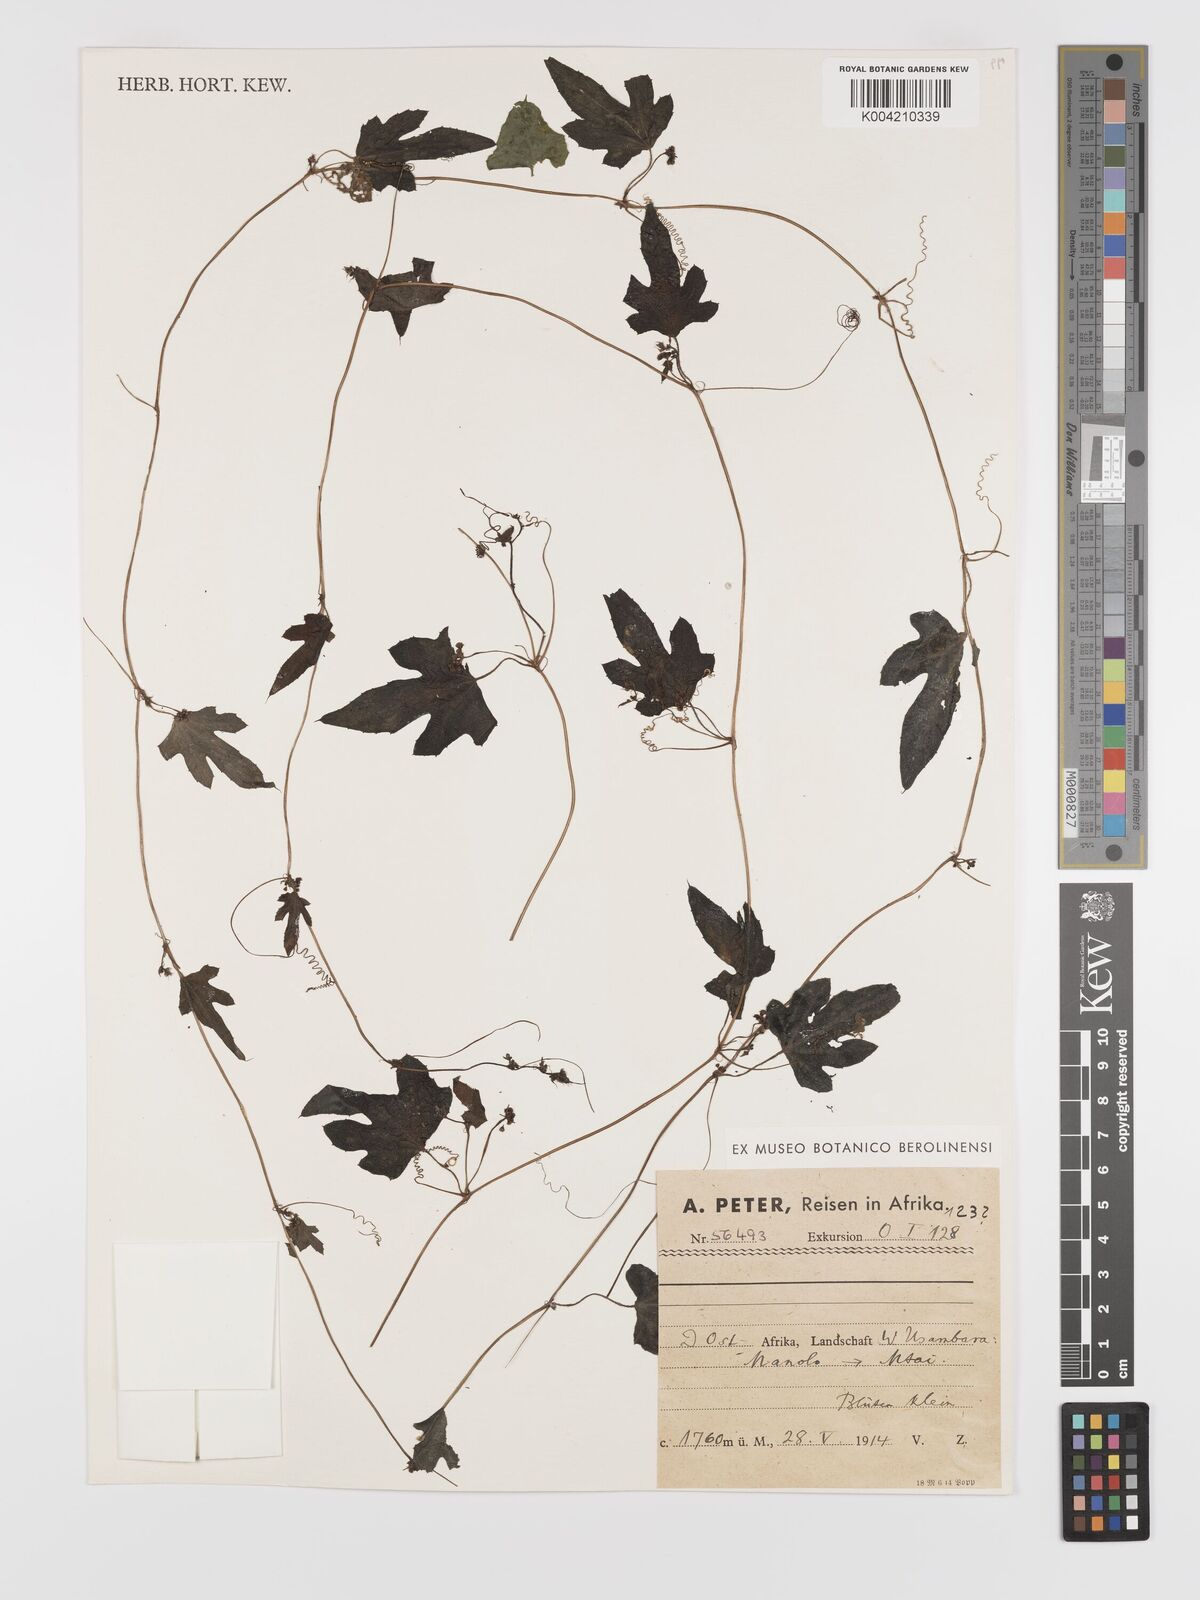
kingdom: Plantae
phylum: Tracheophyta
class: Magnoliopsida
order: Cucurbitales
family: Cucurbitaceae
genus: Zehneria
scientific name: Zehneria emirnensis
